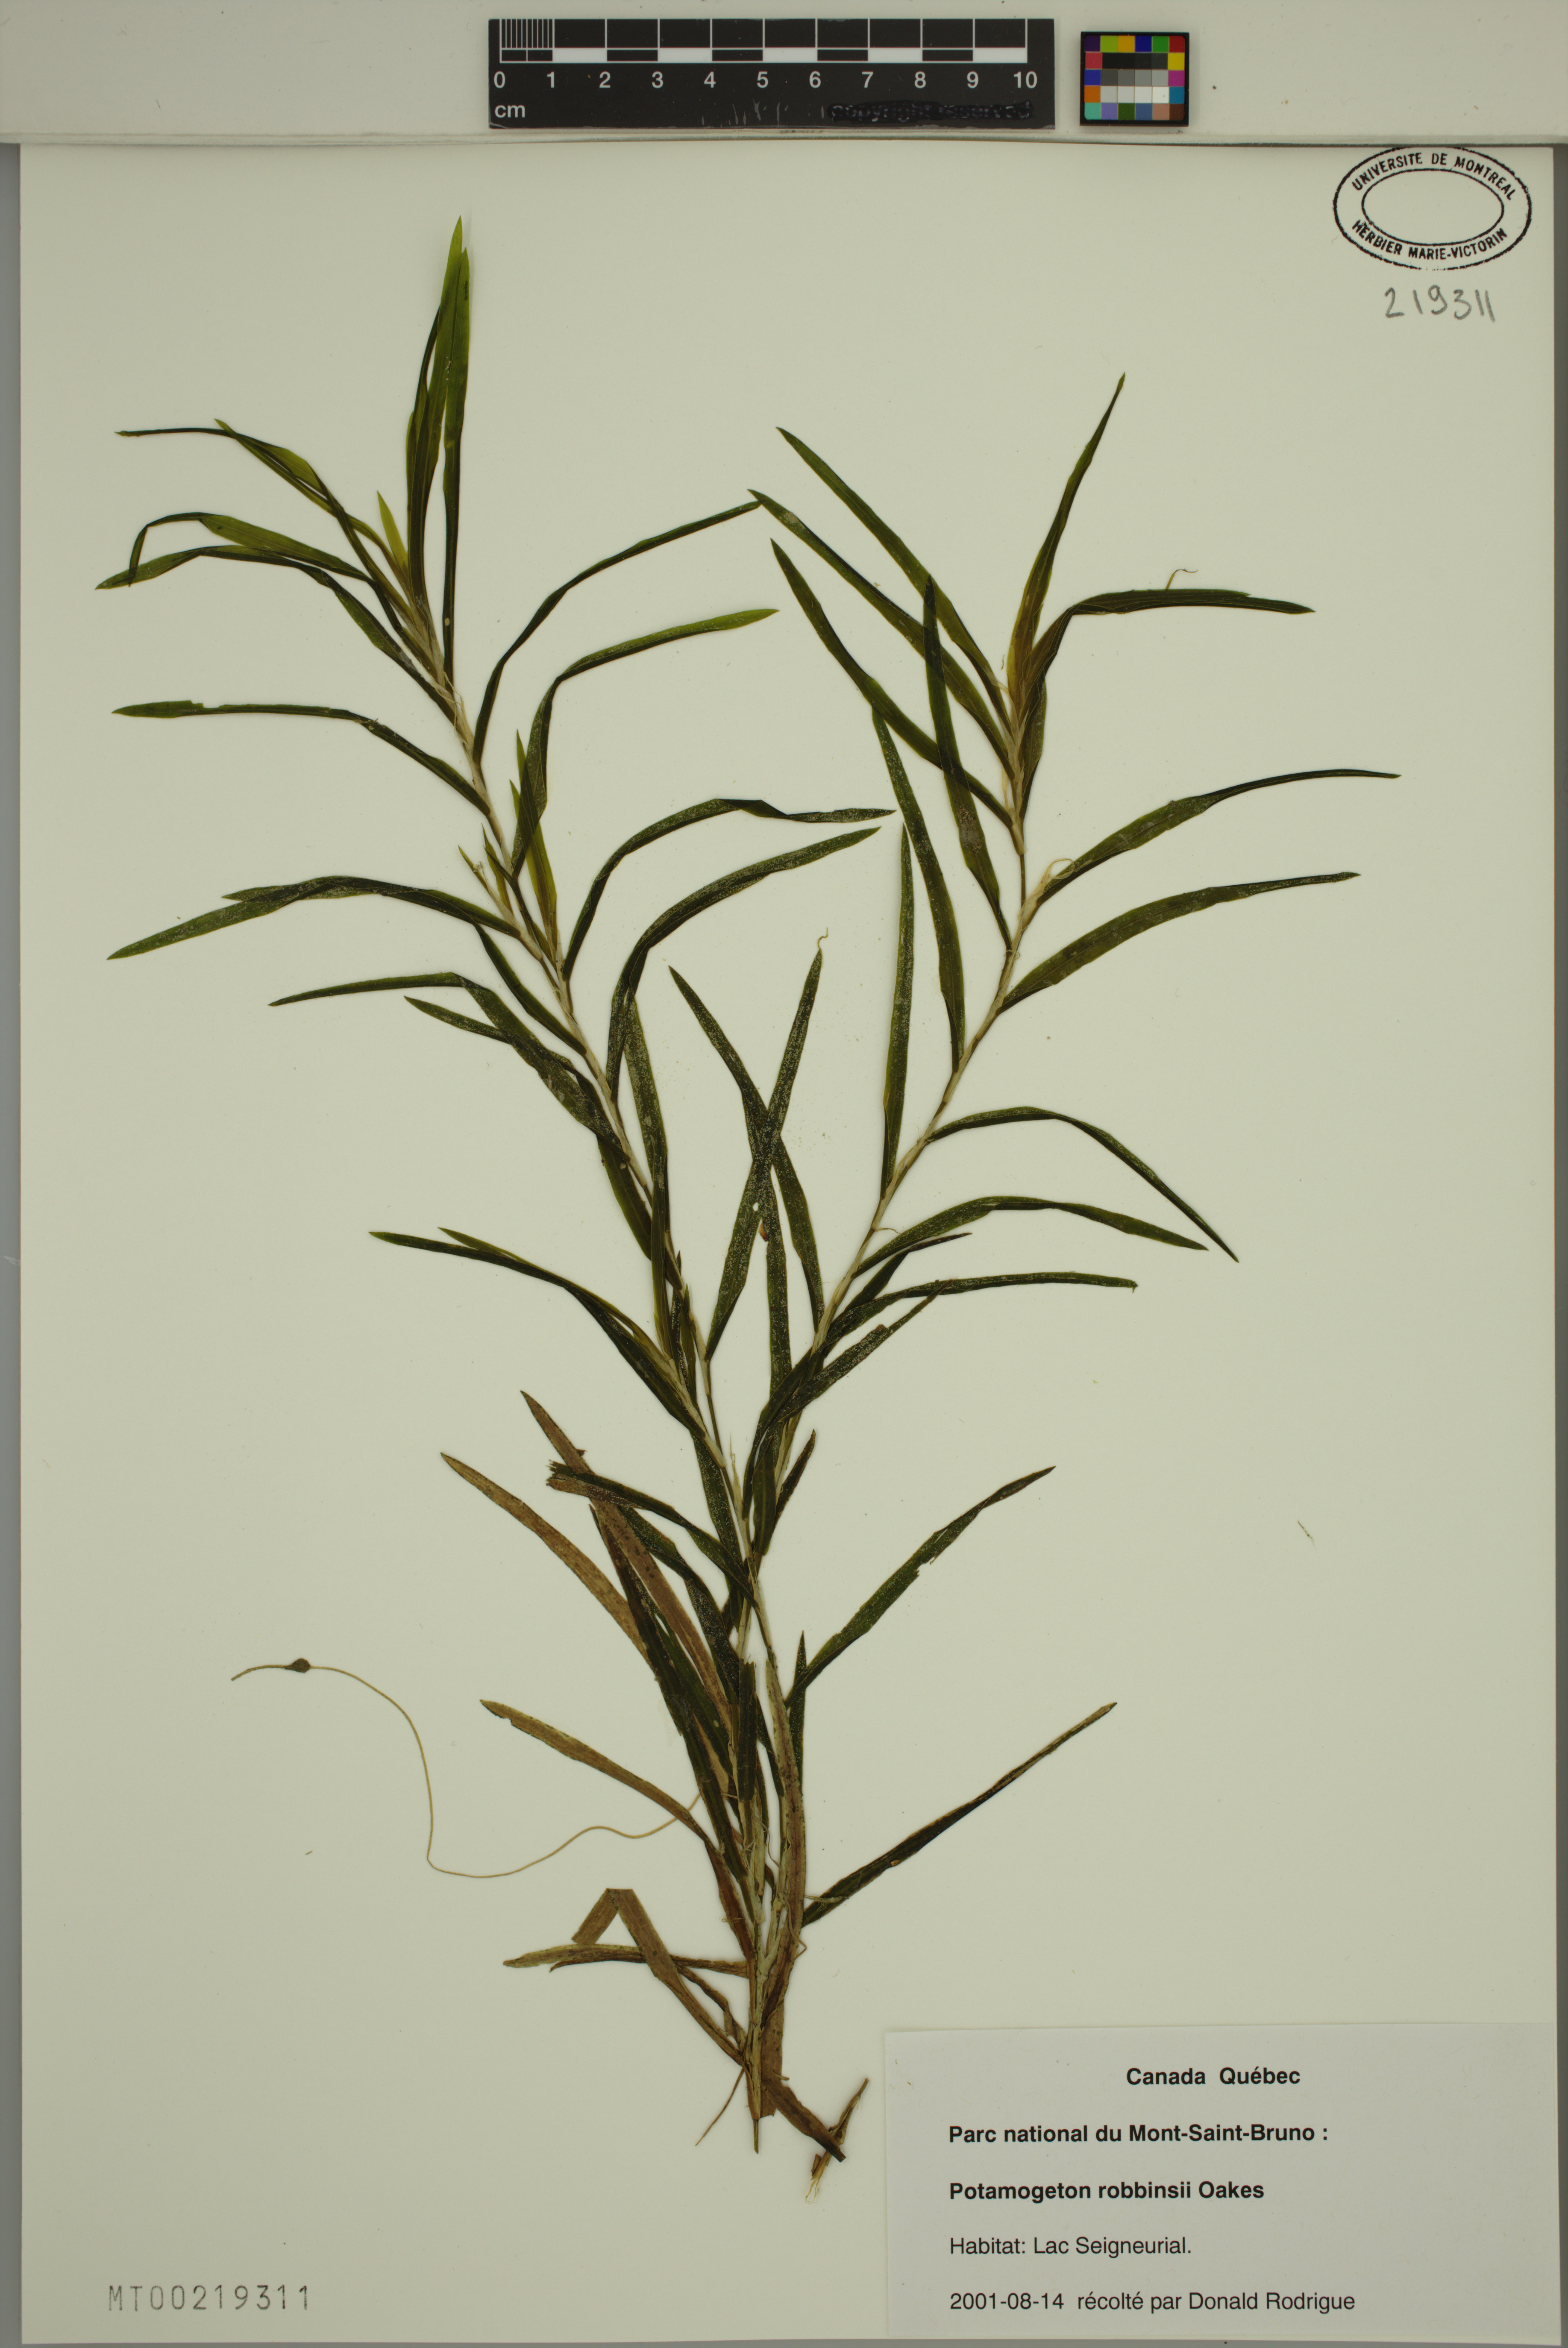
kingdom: Plantae
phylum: Tracheophyta
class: Liliopsida
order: Alismatales
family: Potamogetonaceae
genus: Potamogeton
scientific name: Potamogeton robbinsii
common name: Fern pondweed
